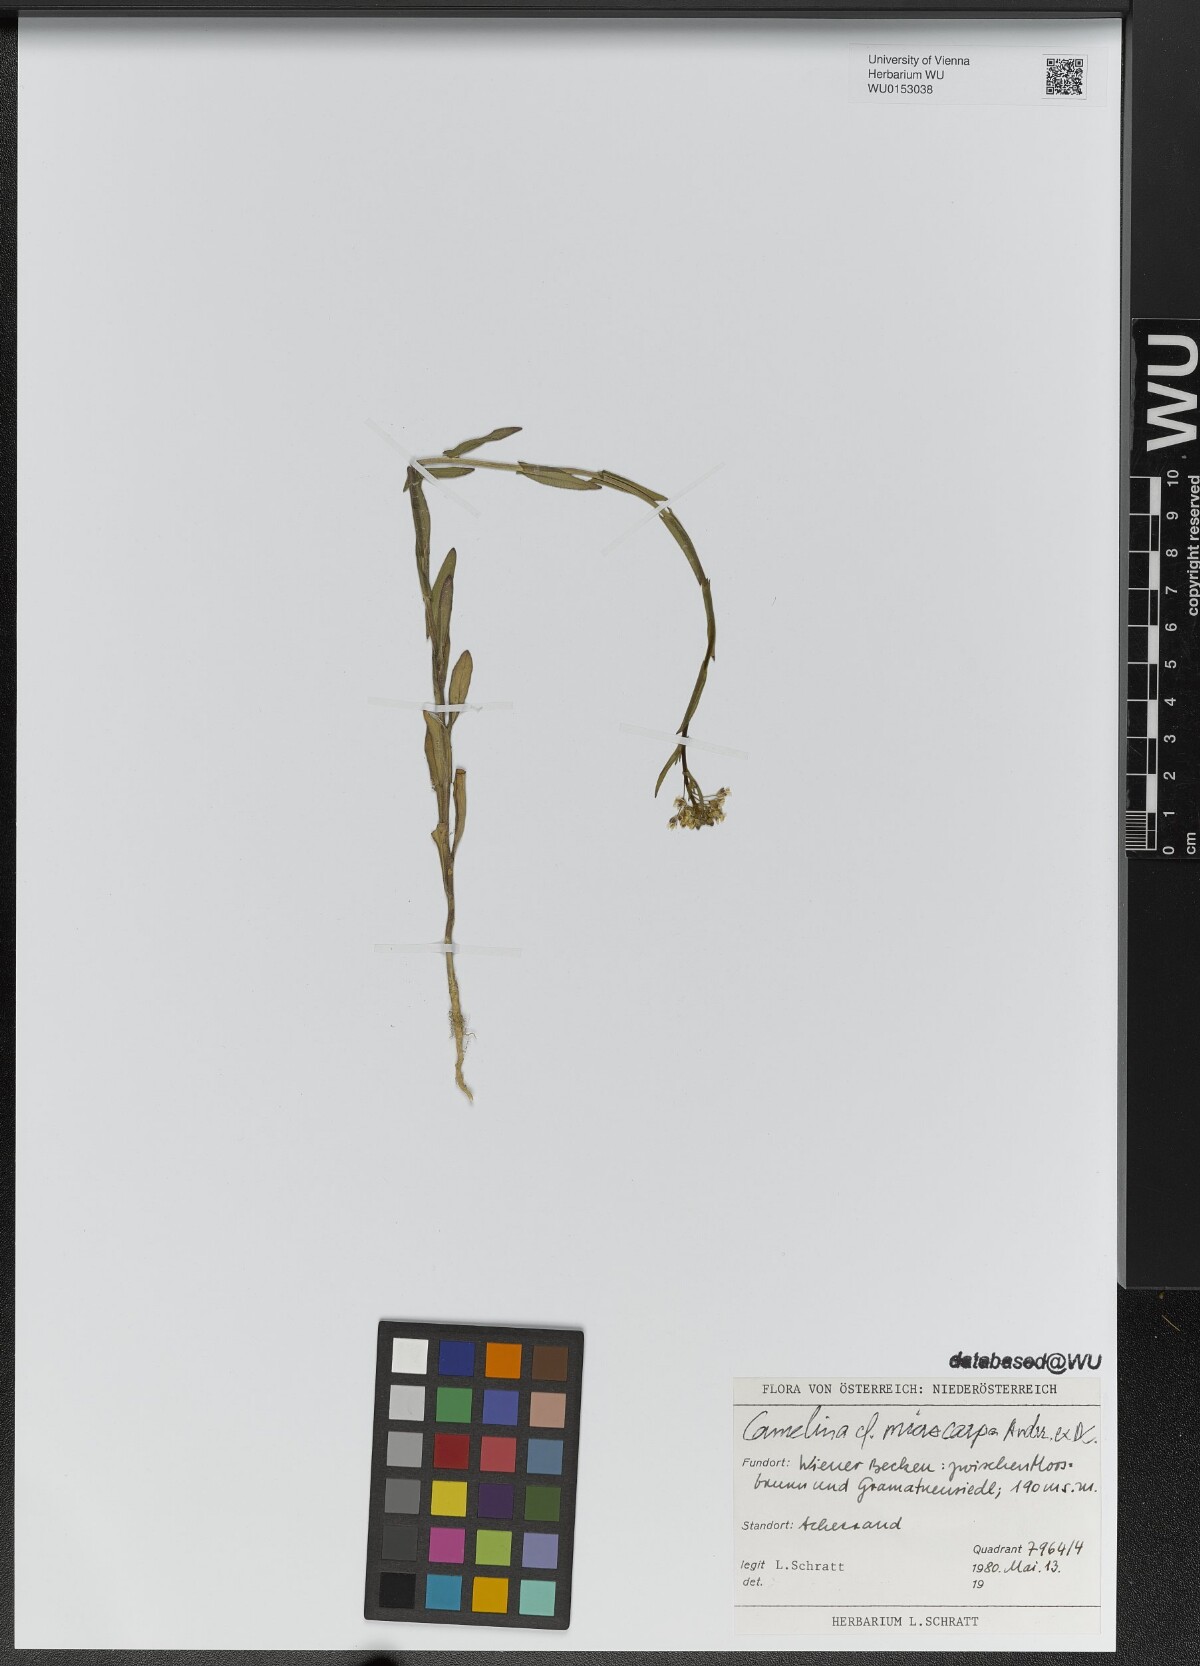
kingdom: Plantae
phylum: Tracheophyta
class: Magnoliopsida
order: Brassicales
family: Brassicaceae
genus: Camelina
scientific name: Camelina microcarpa
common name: Lesser gold-of-pleasure
